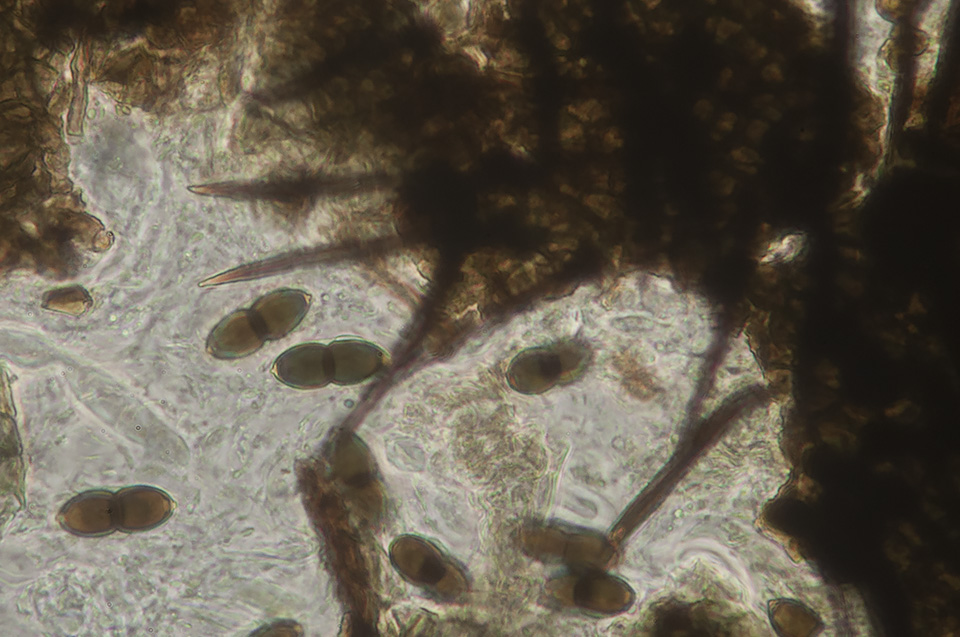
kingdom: Fungi
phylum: Ascomycota
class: Dothideomycetes
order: Phaeotrichales
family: Phaeotrichaceae
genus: Trichodelitschia
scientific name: Trichodelitschia bisporula
